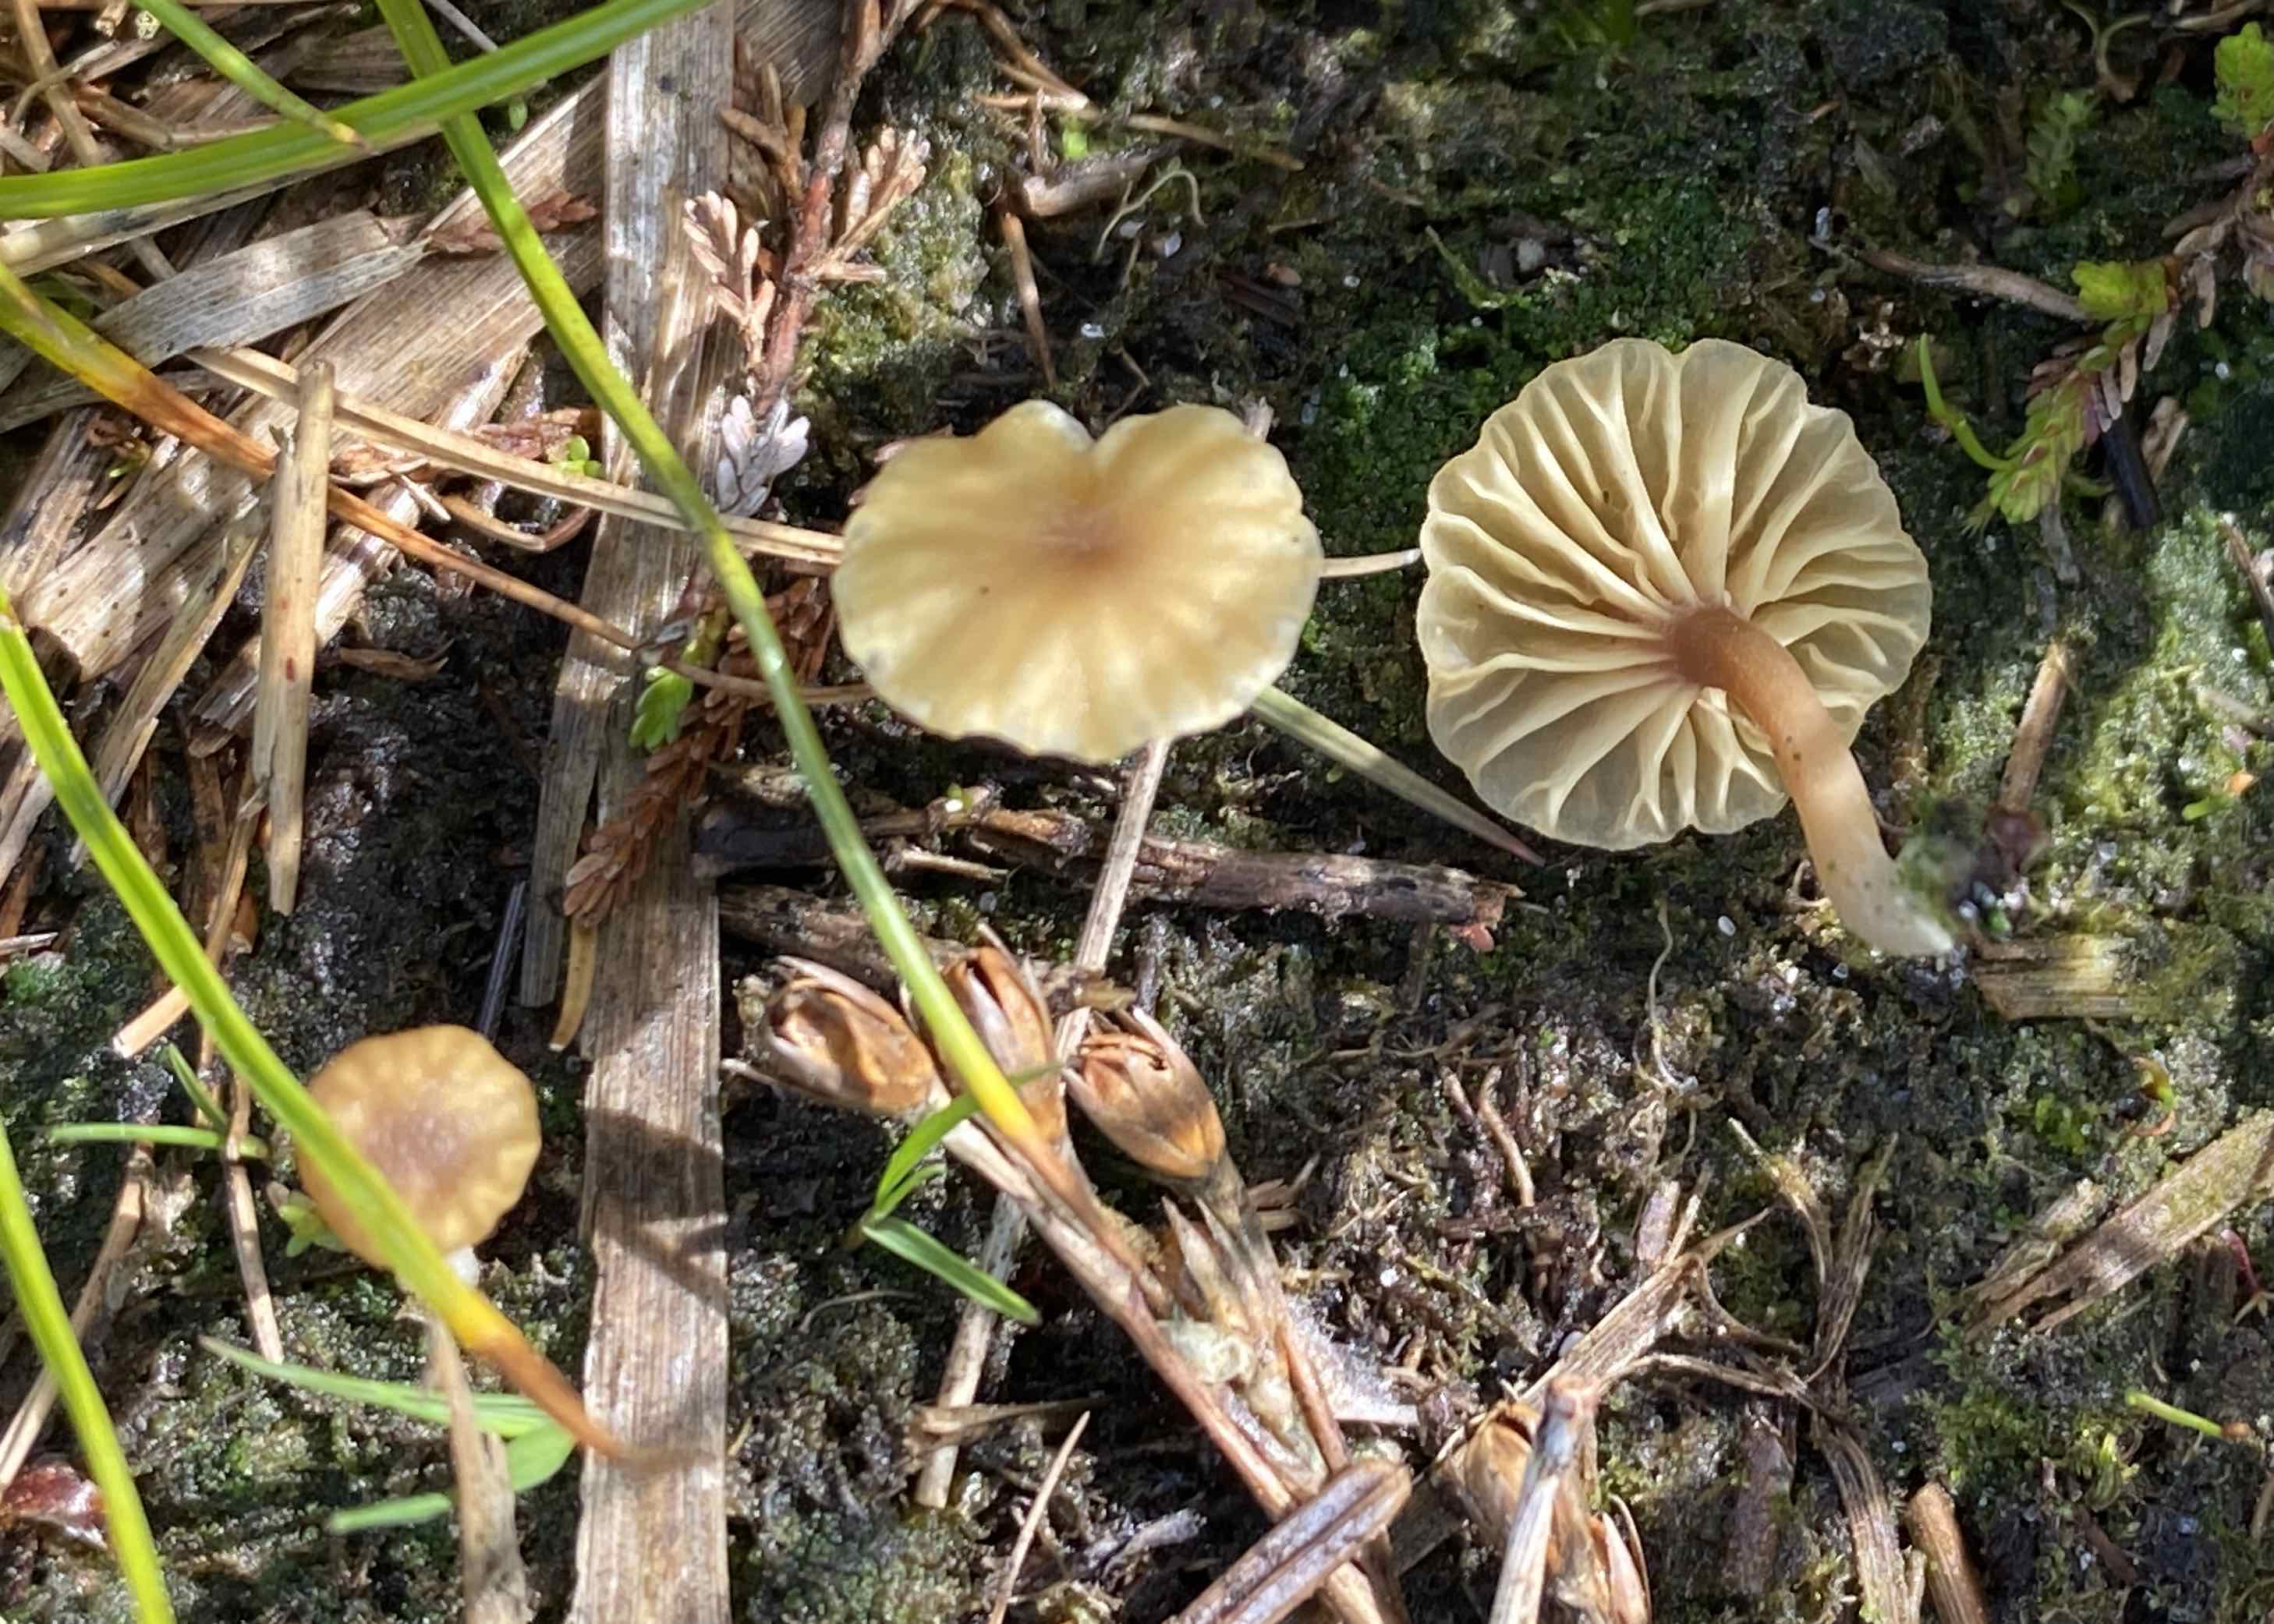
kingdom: Fungi
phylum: Basidiomycota
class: Agaricomycetes
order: Agaricales
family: Hygrophoraceae
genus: Lichenomphalia
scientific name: Lichenomphalia umbellifera
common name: tørve-lavhat
